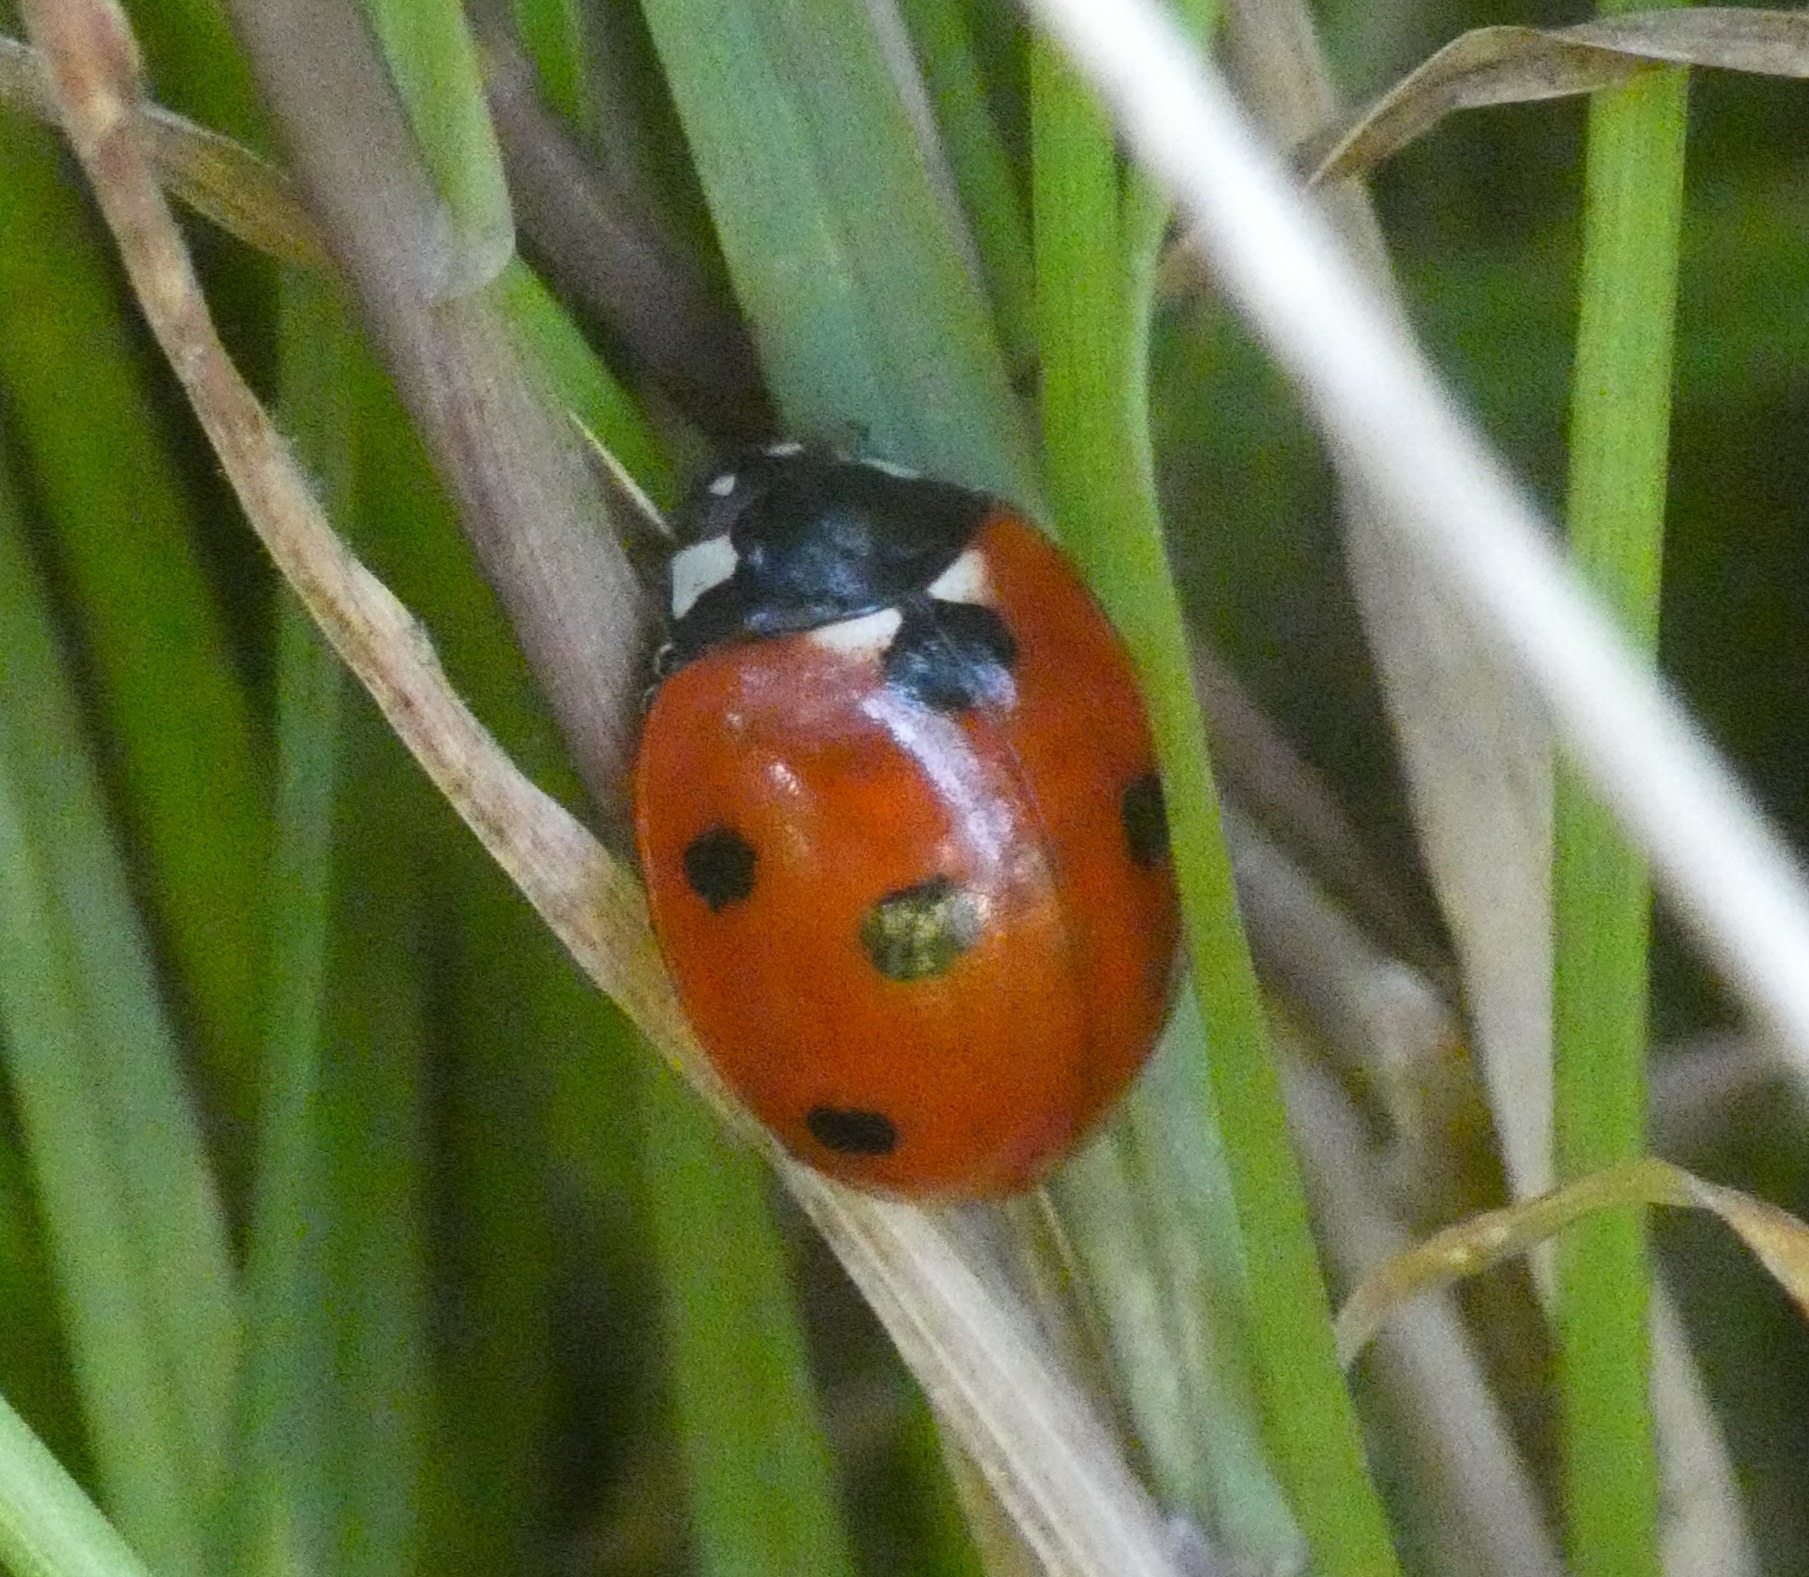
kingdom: Animalia
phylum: Arthropoda
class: Insecta
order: Coleoptera
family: Coccinellidae
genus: Coccinella
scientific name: Coccinella septempunctata
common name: Syvplettet mariehøne
